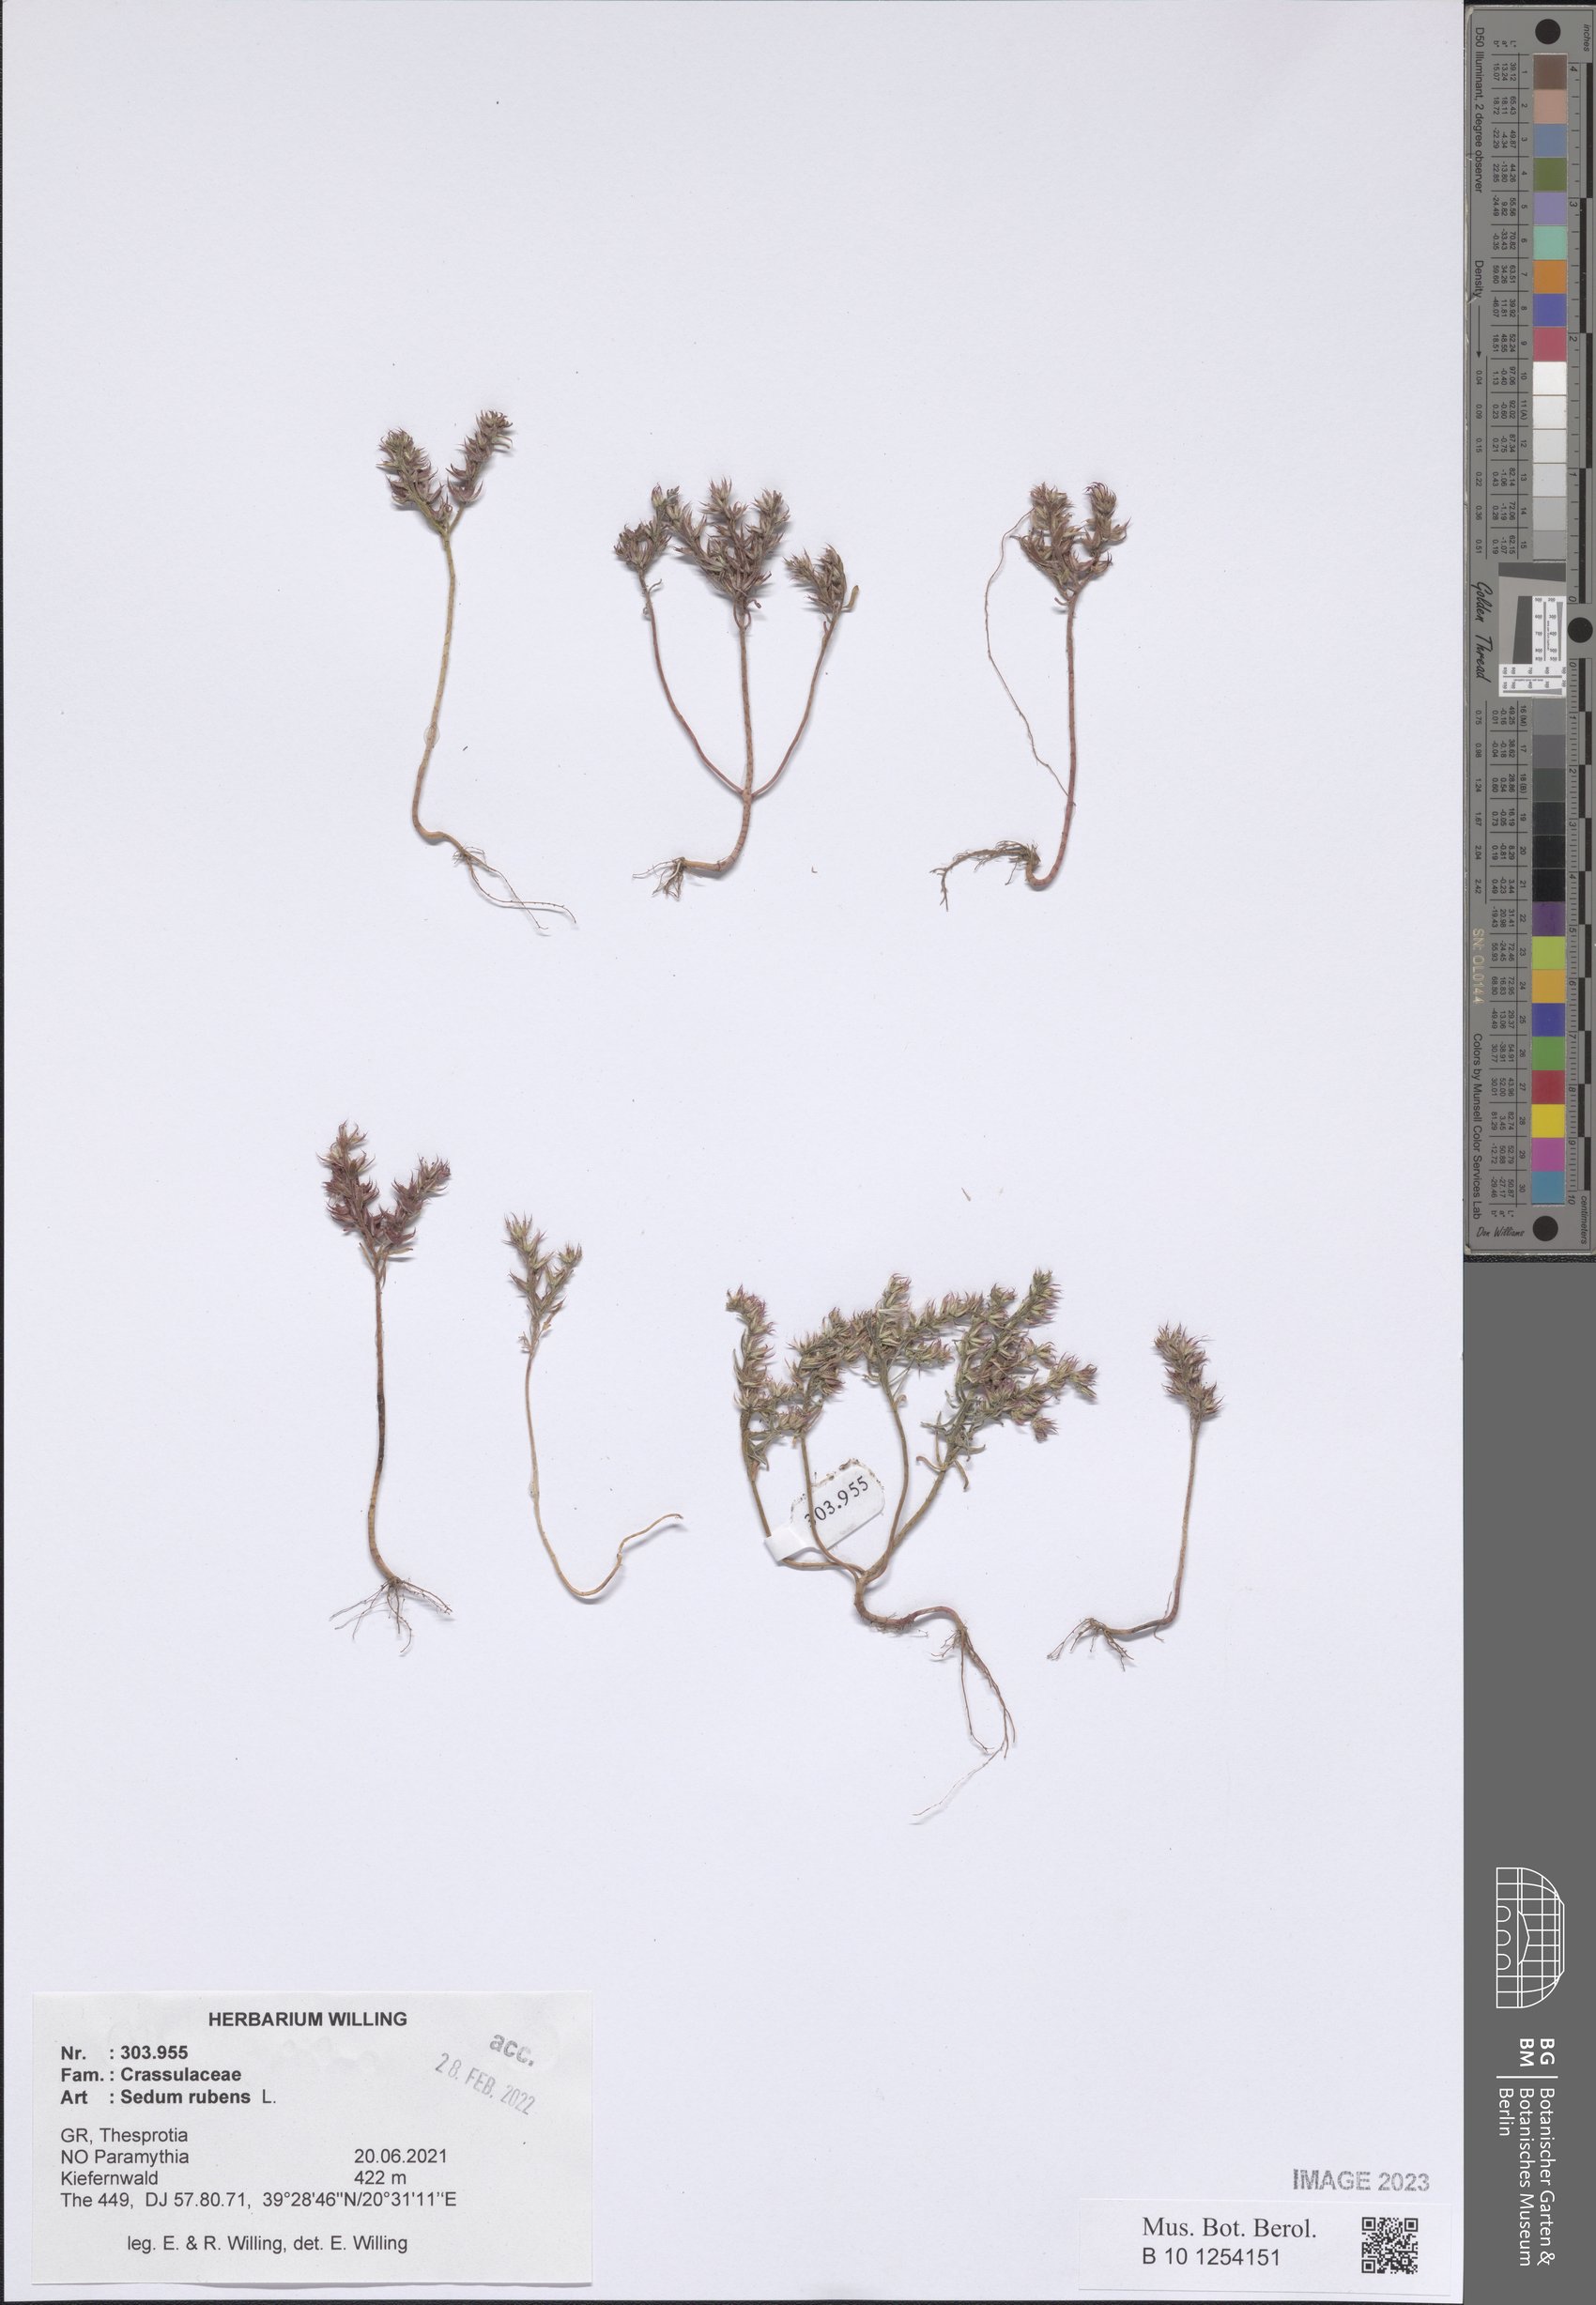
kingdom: Plantae
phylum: Tracheophyta
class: Magnoliopsida
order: Saxifragales
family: Crassulaceae
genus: Sedum
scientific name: Sedum rubens
